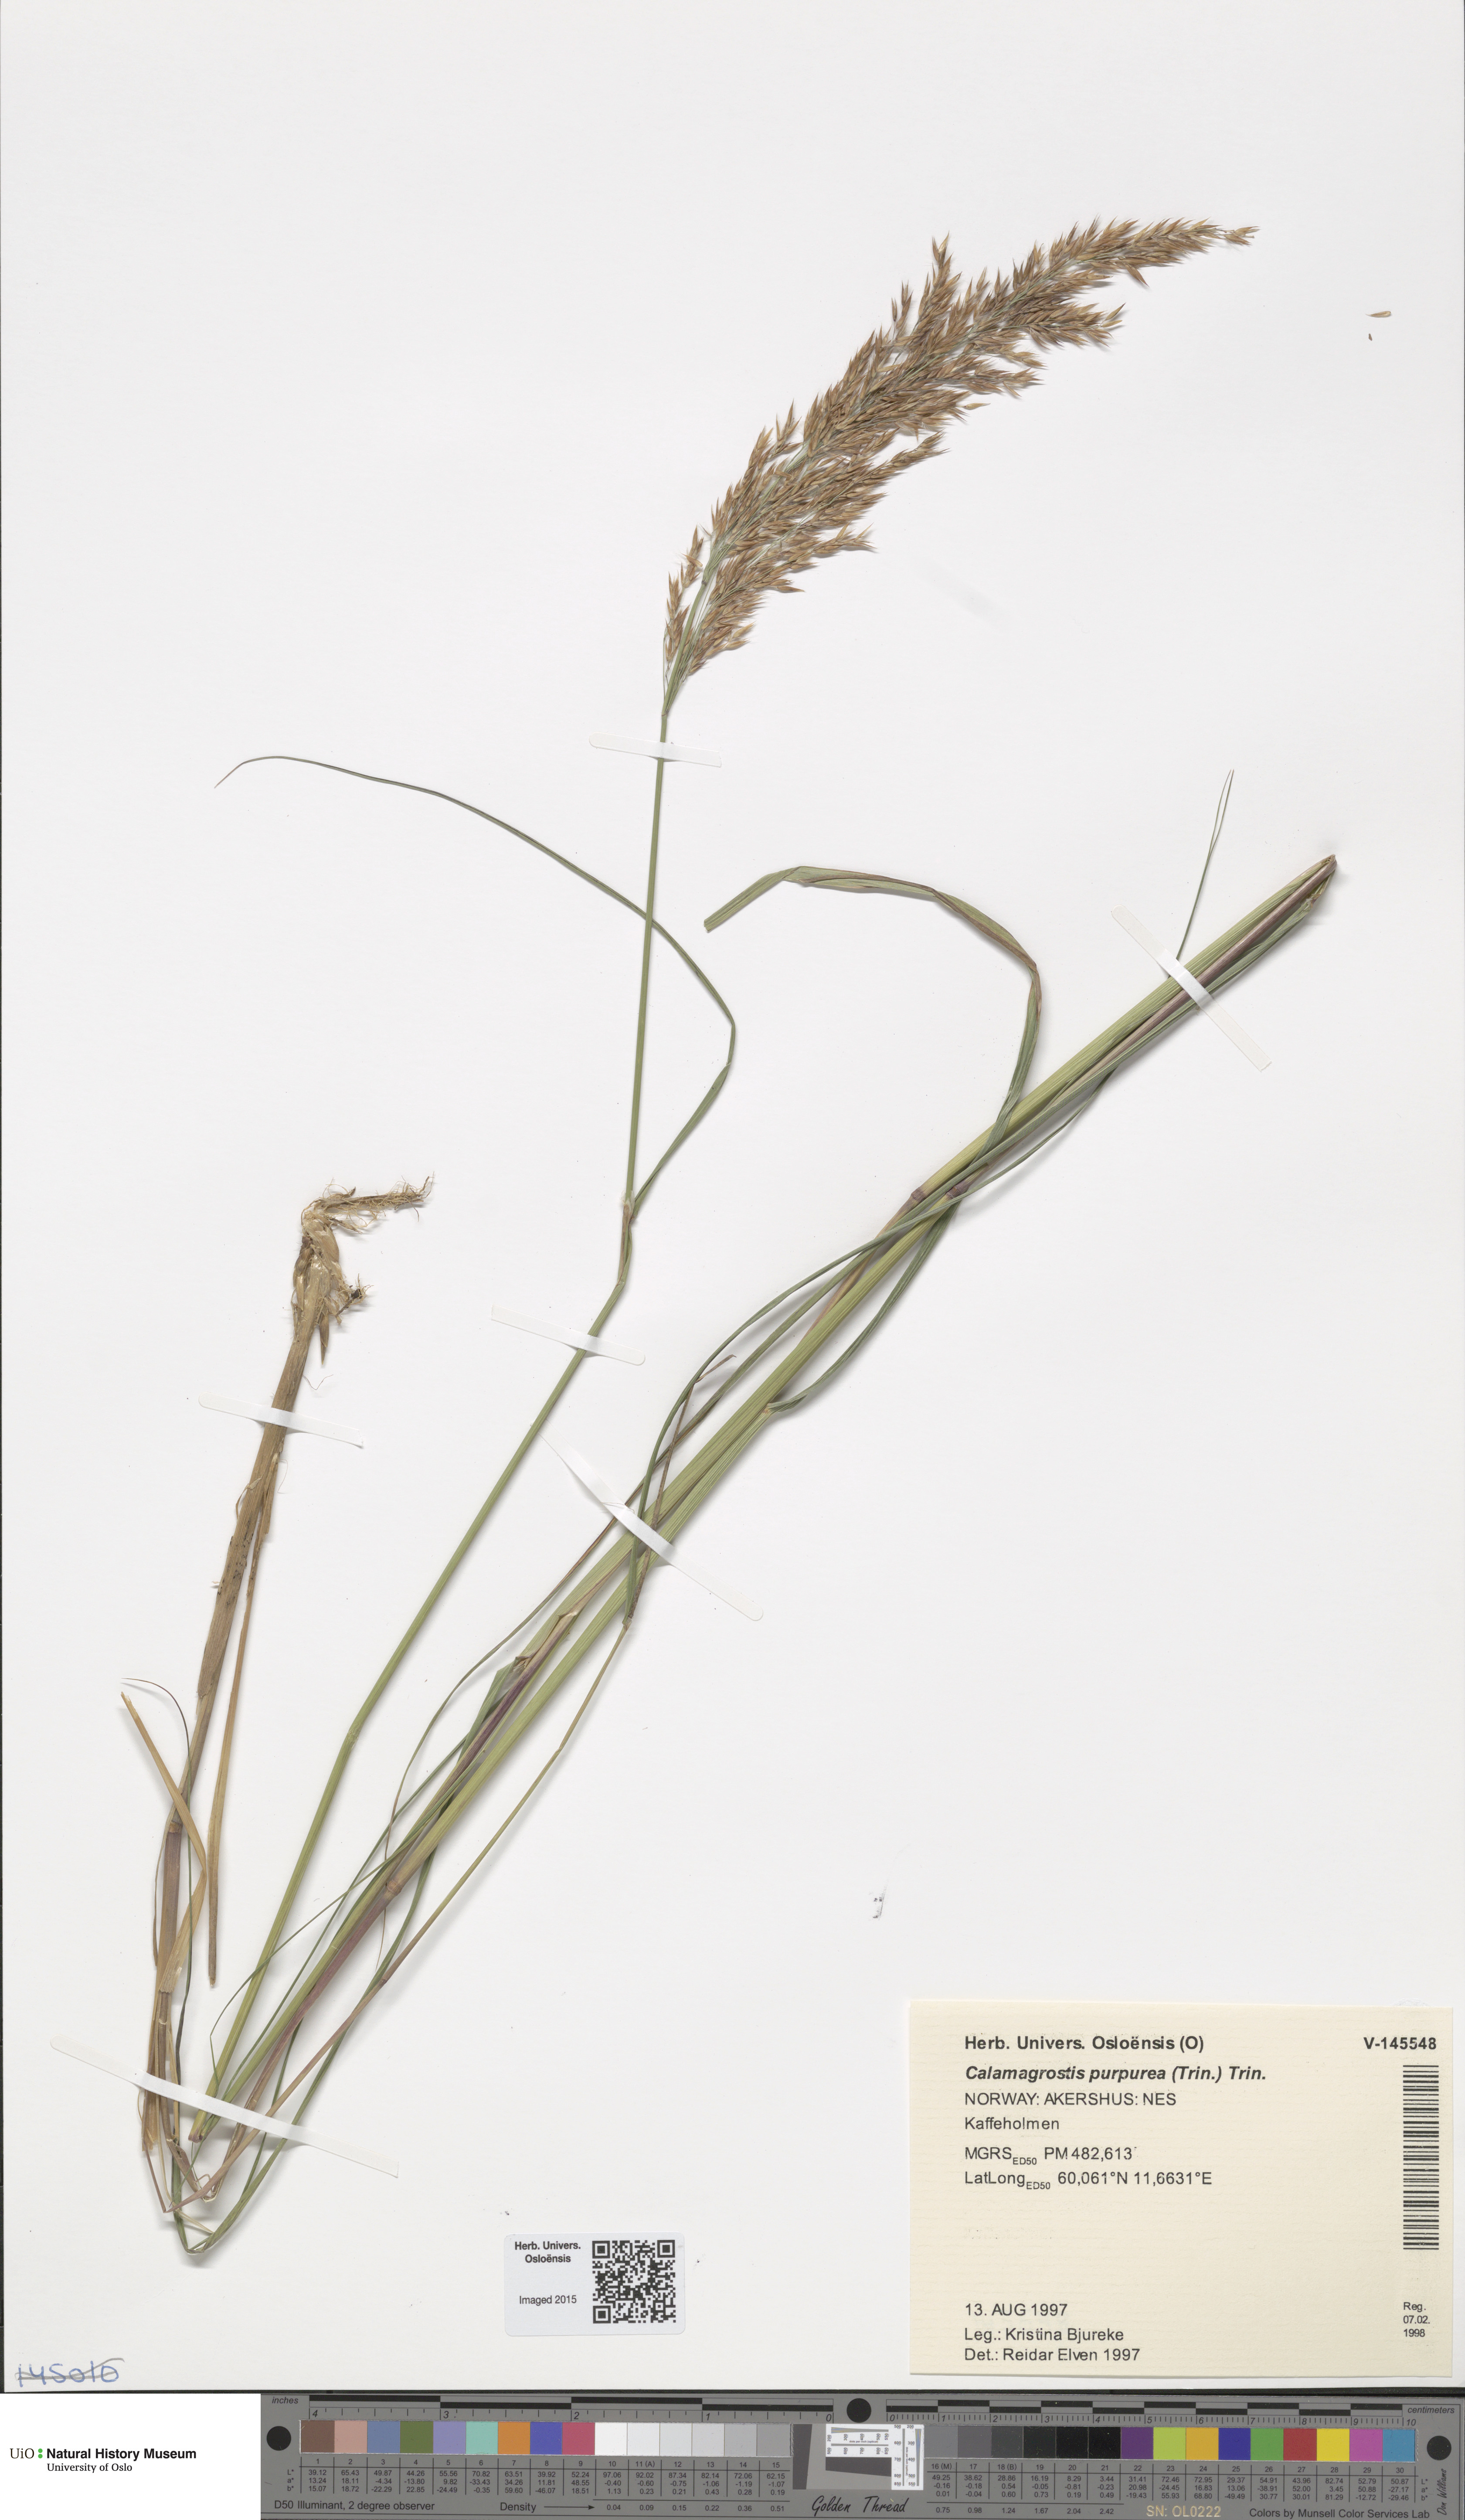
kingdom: Plantae
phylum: Tracheophyta
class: Liliopsida
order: Poales
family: Poaceae
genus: Calamagrostis
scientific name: Calamagrostis purpurea
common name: Scandinavian small-reed
